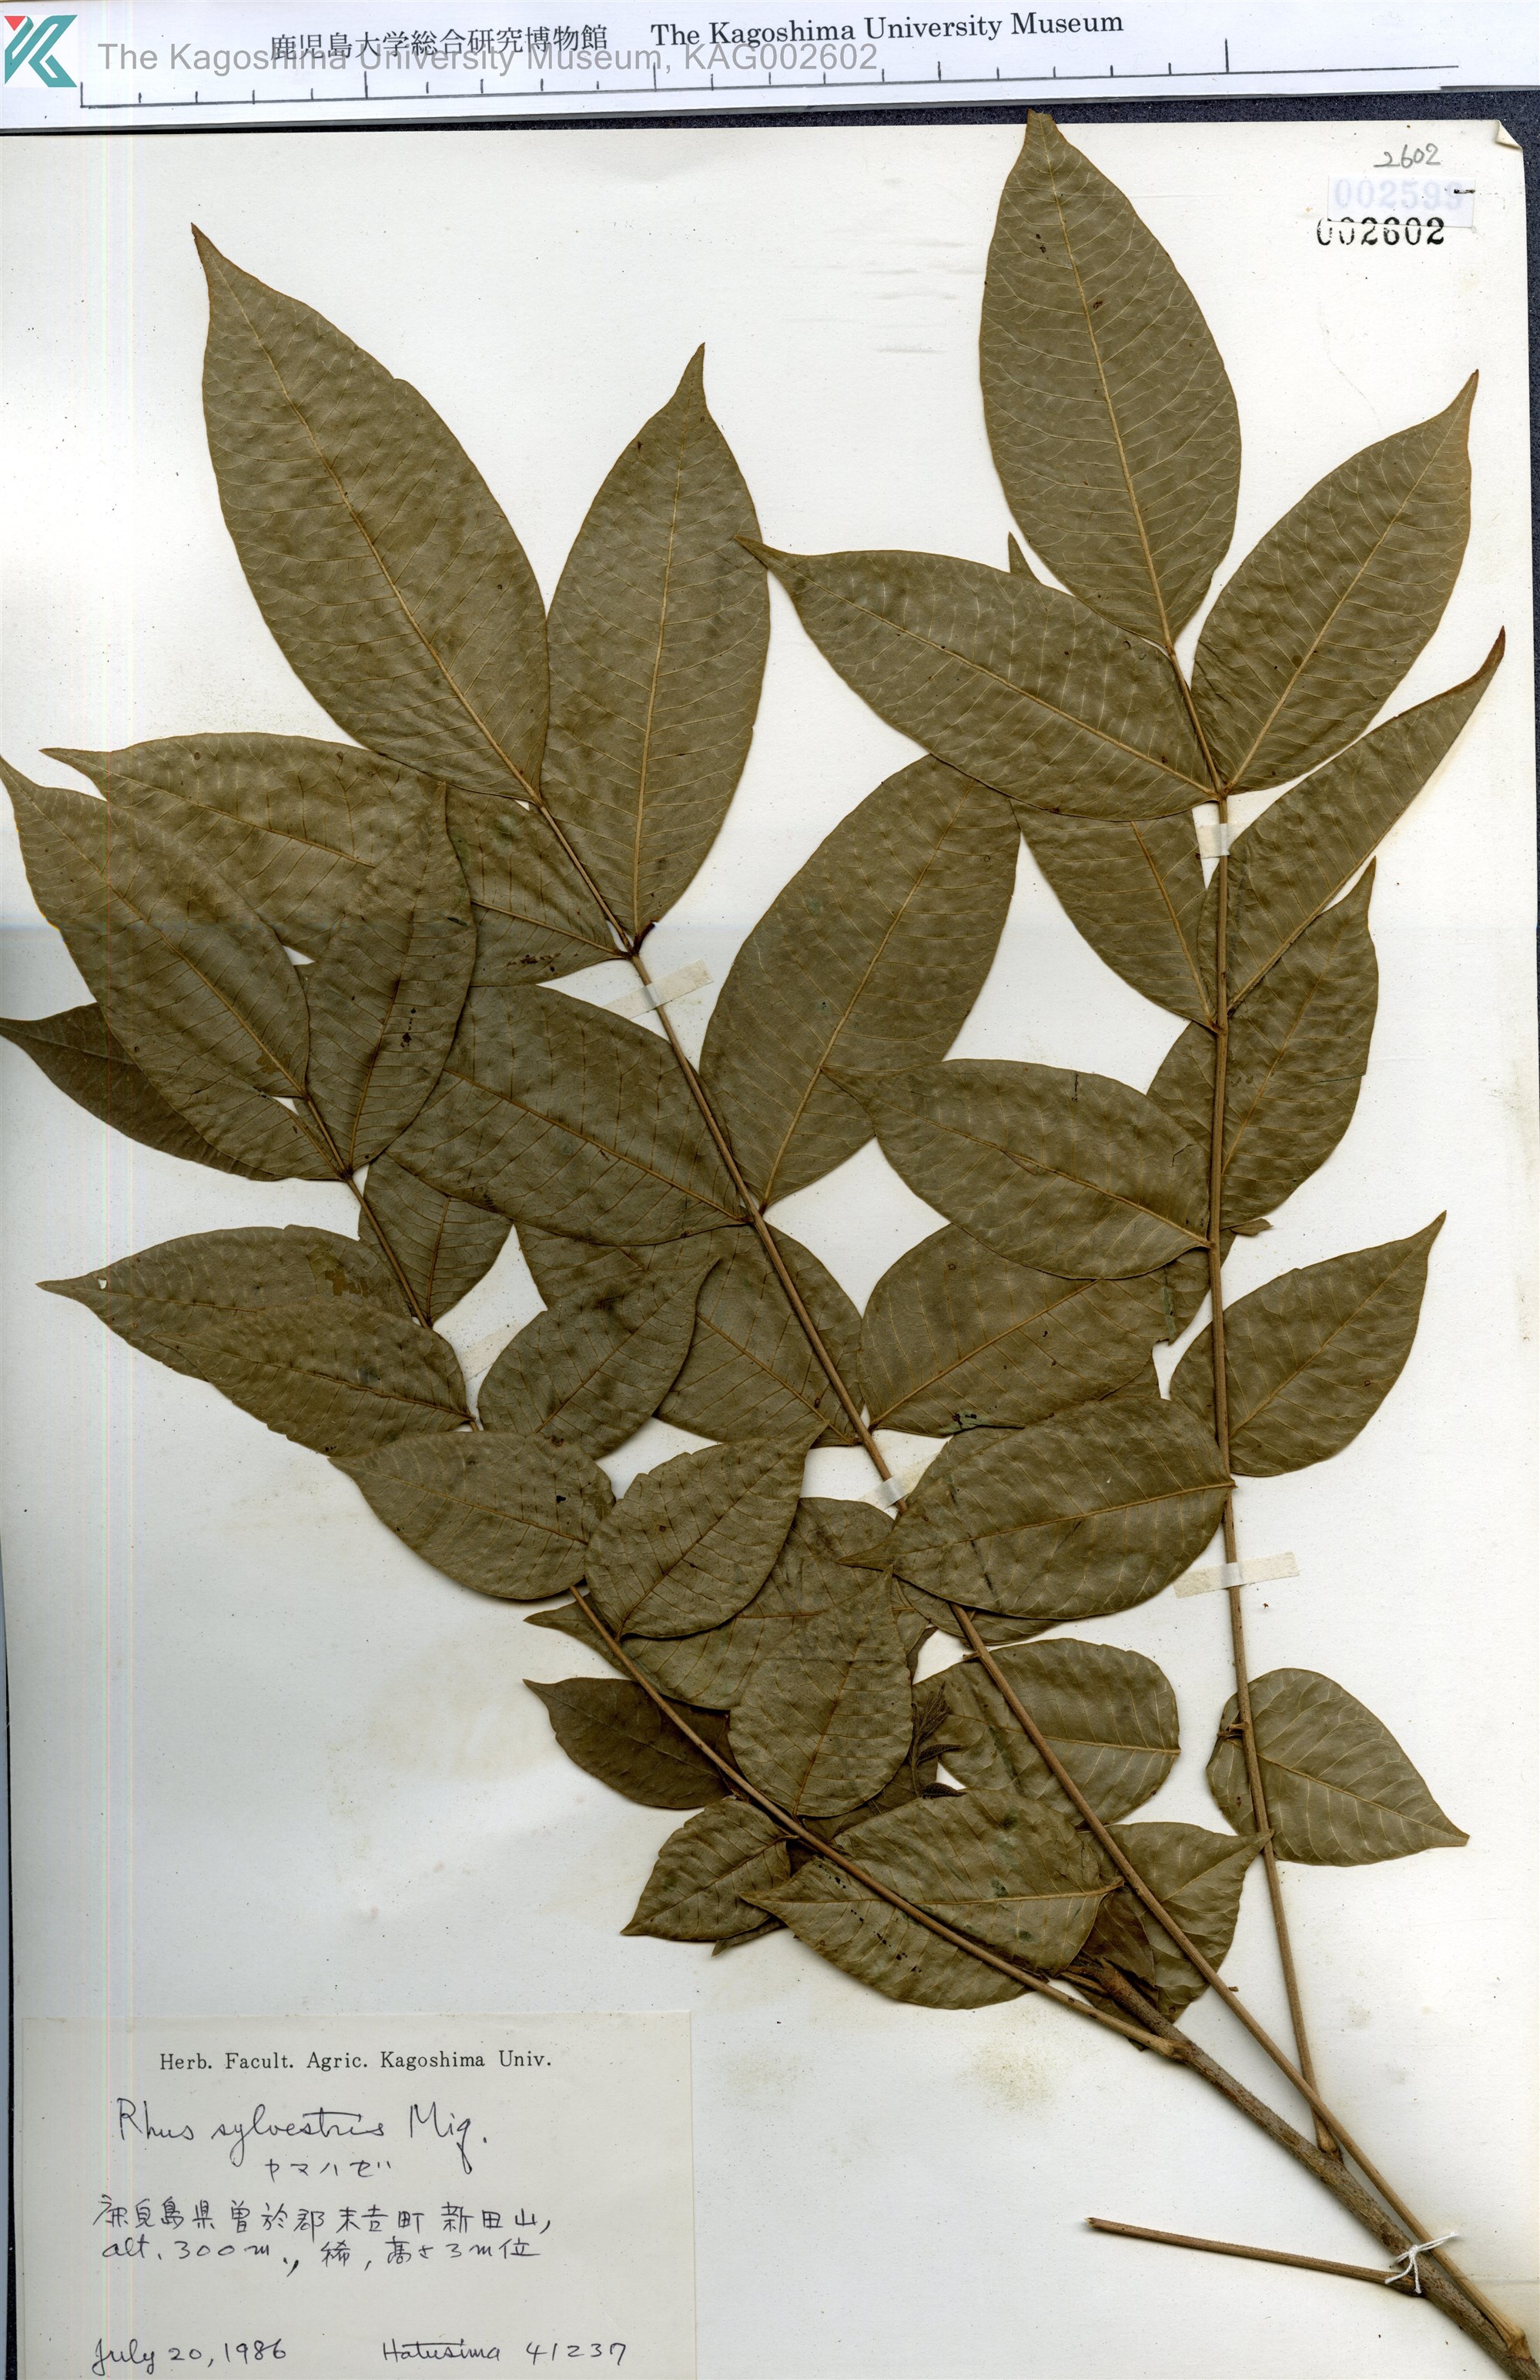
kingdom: Plantae
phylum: Tracheophyta
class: Magnoliopsida
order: Sapindales
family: Anacardiaceae
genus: Toxicodendron
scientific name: Toxicodendron sylvestre
